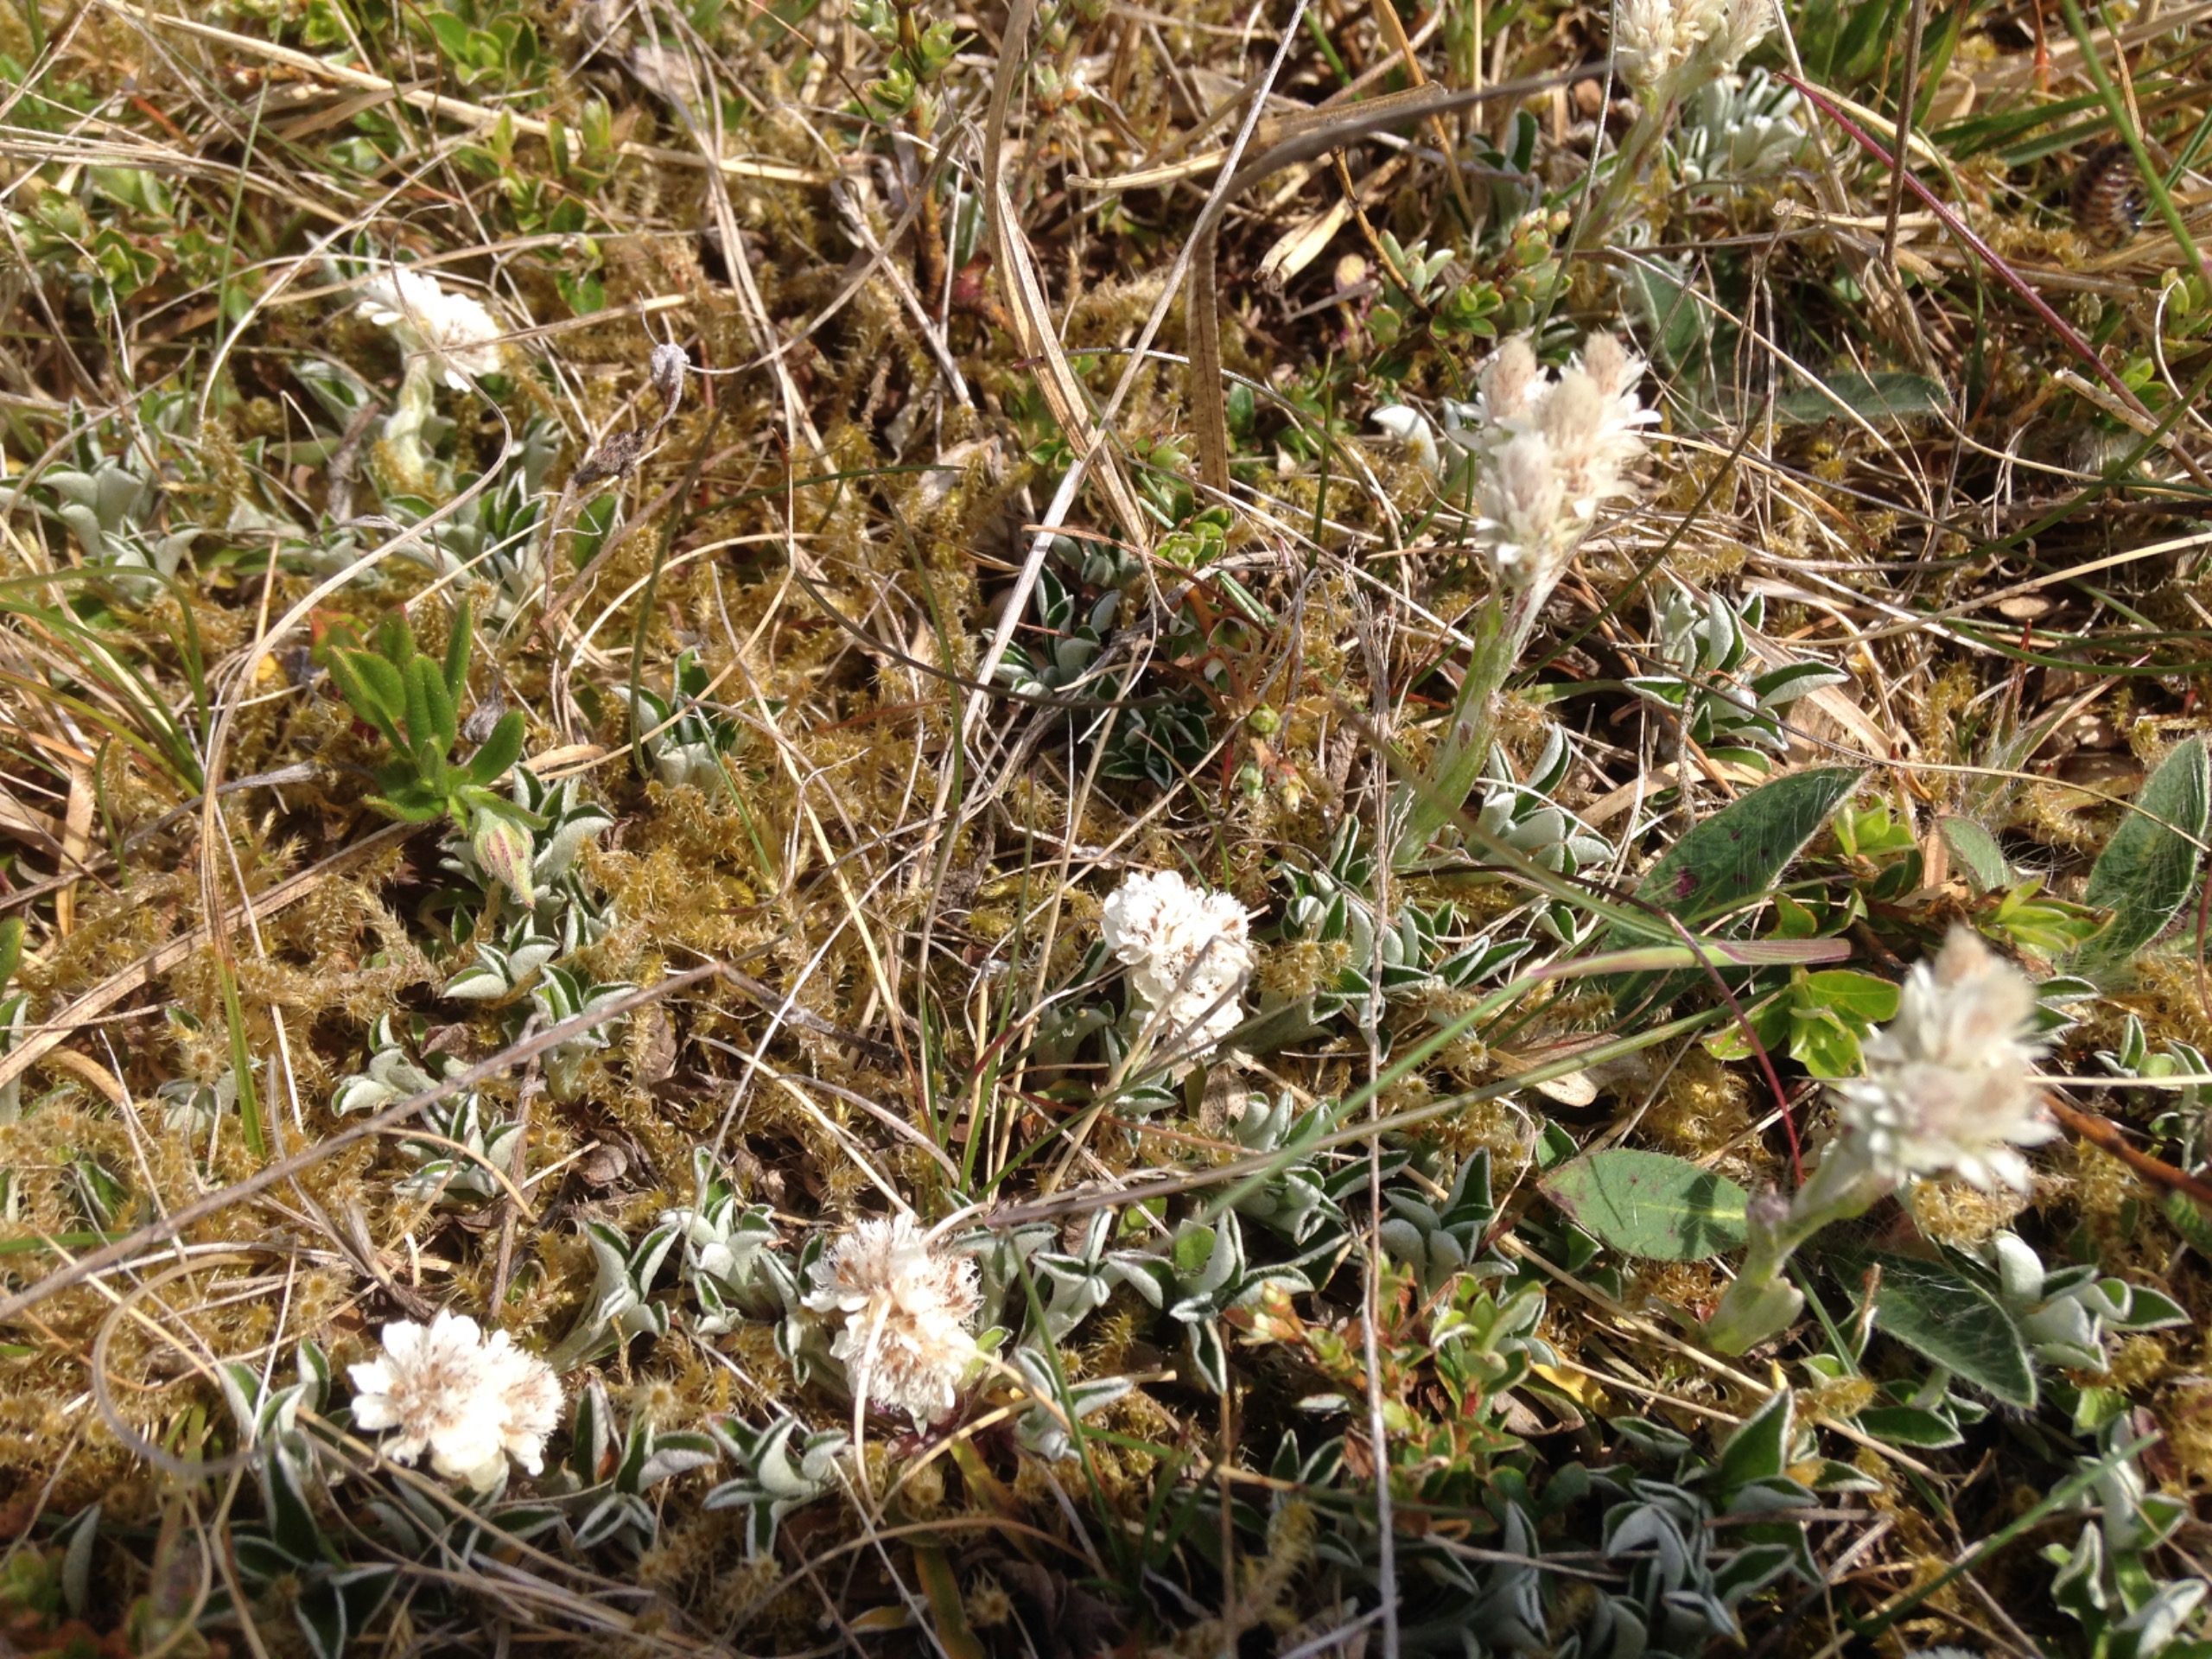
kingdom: Plantae
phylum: Tracheophyta
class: Magnoliopsida
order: Asterales
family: Asteraceae
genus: Antennaria
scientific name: Antennaria dioica
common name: Kattefod
